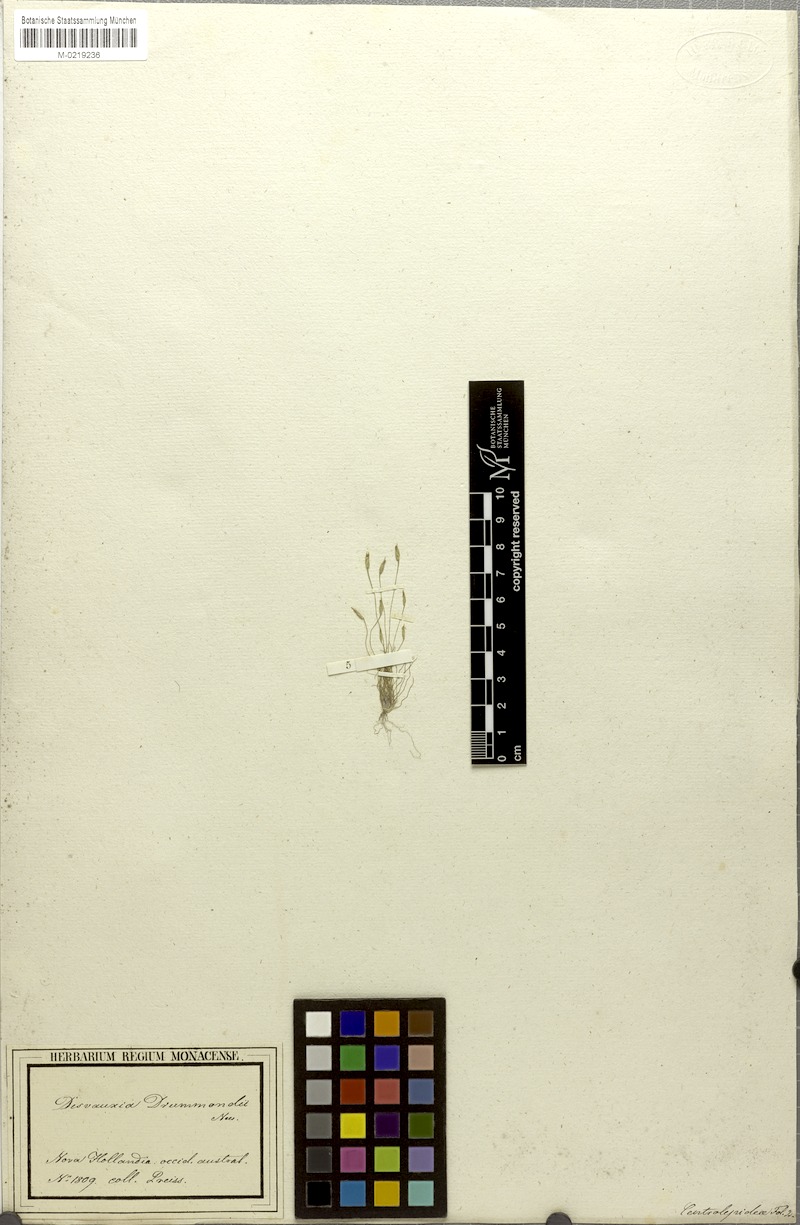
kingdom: Plantae
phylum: Tracheophyta
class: Liliopsida
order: Poales
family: Restionaceae
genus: Centrolepis
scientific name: Centrolepis drummondiana
